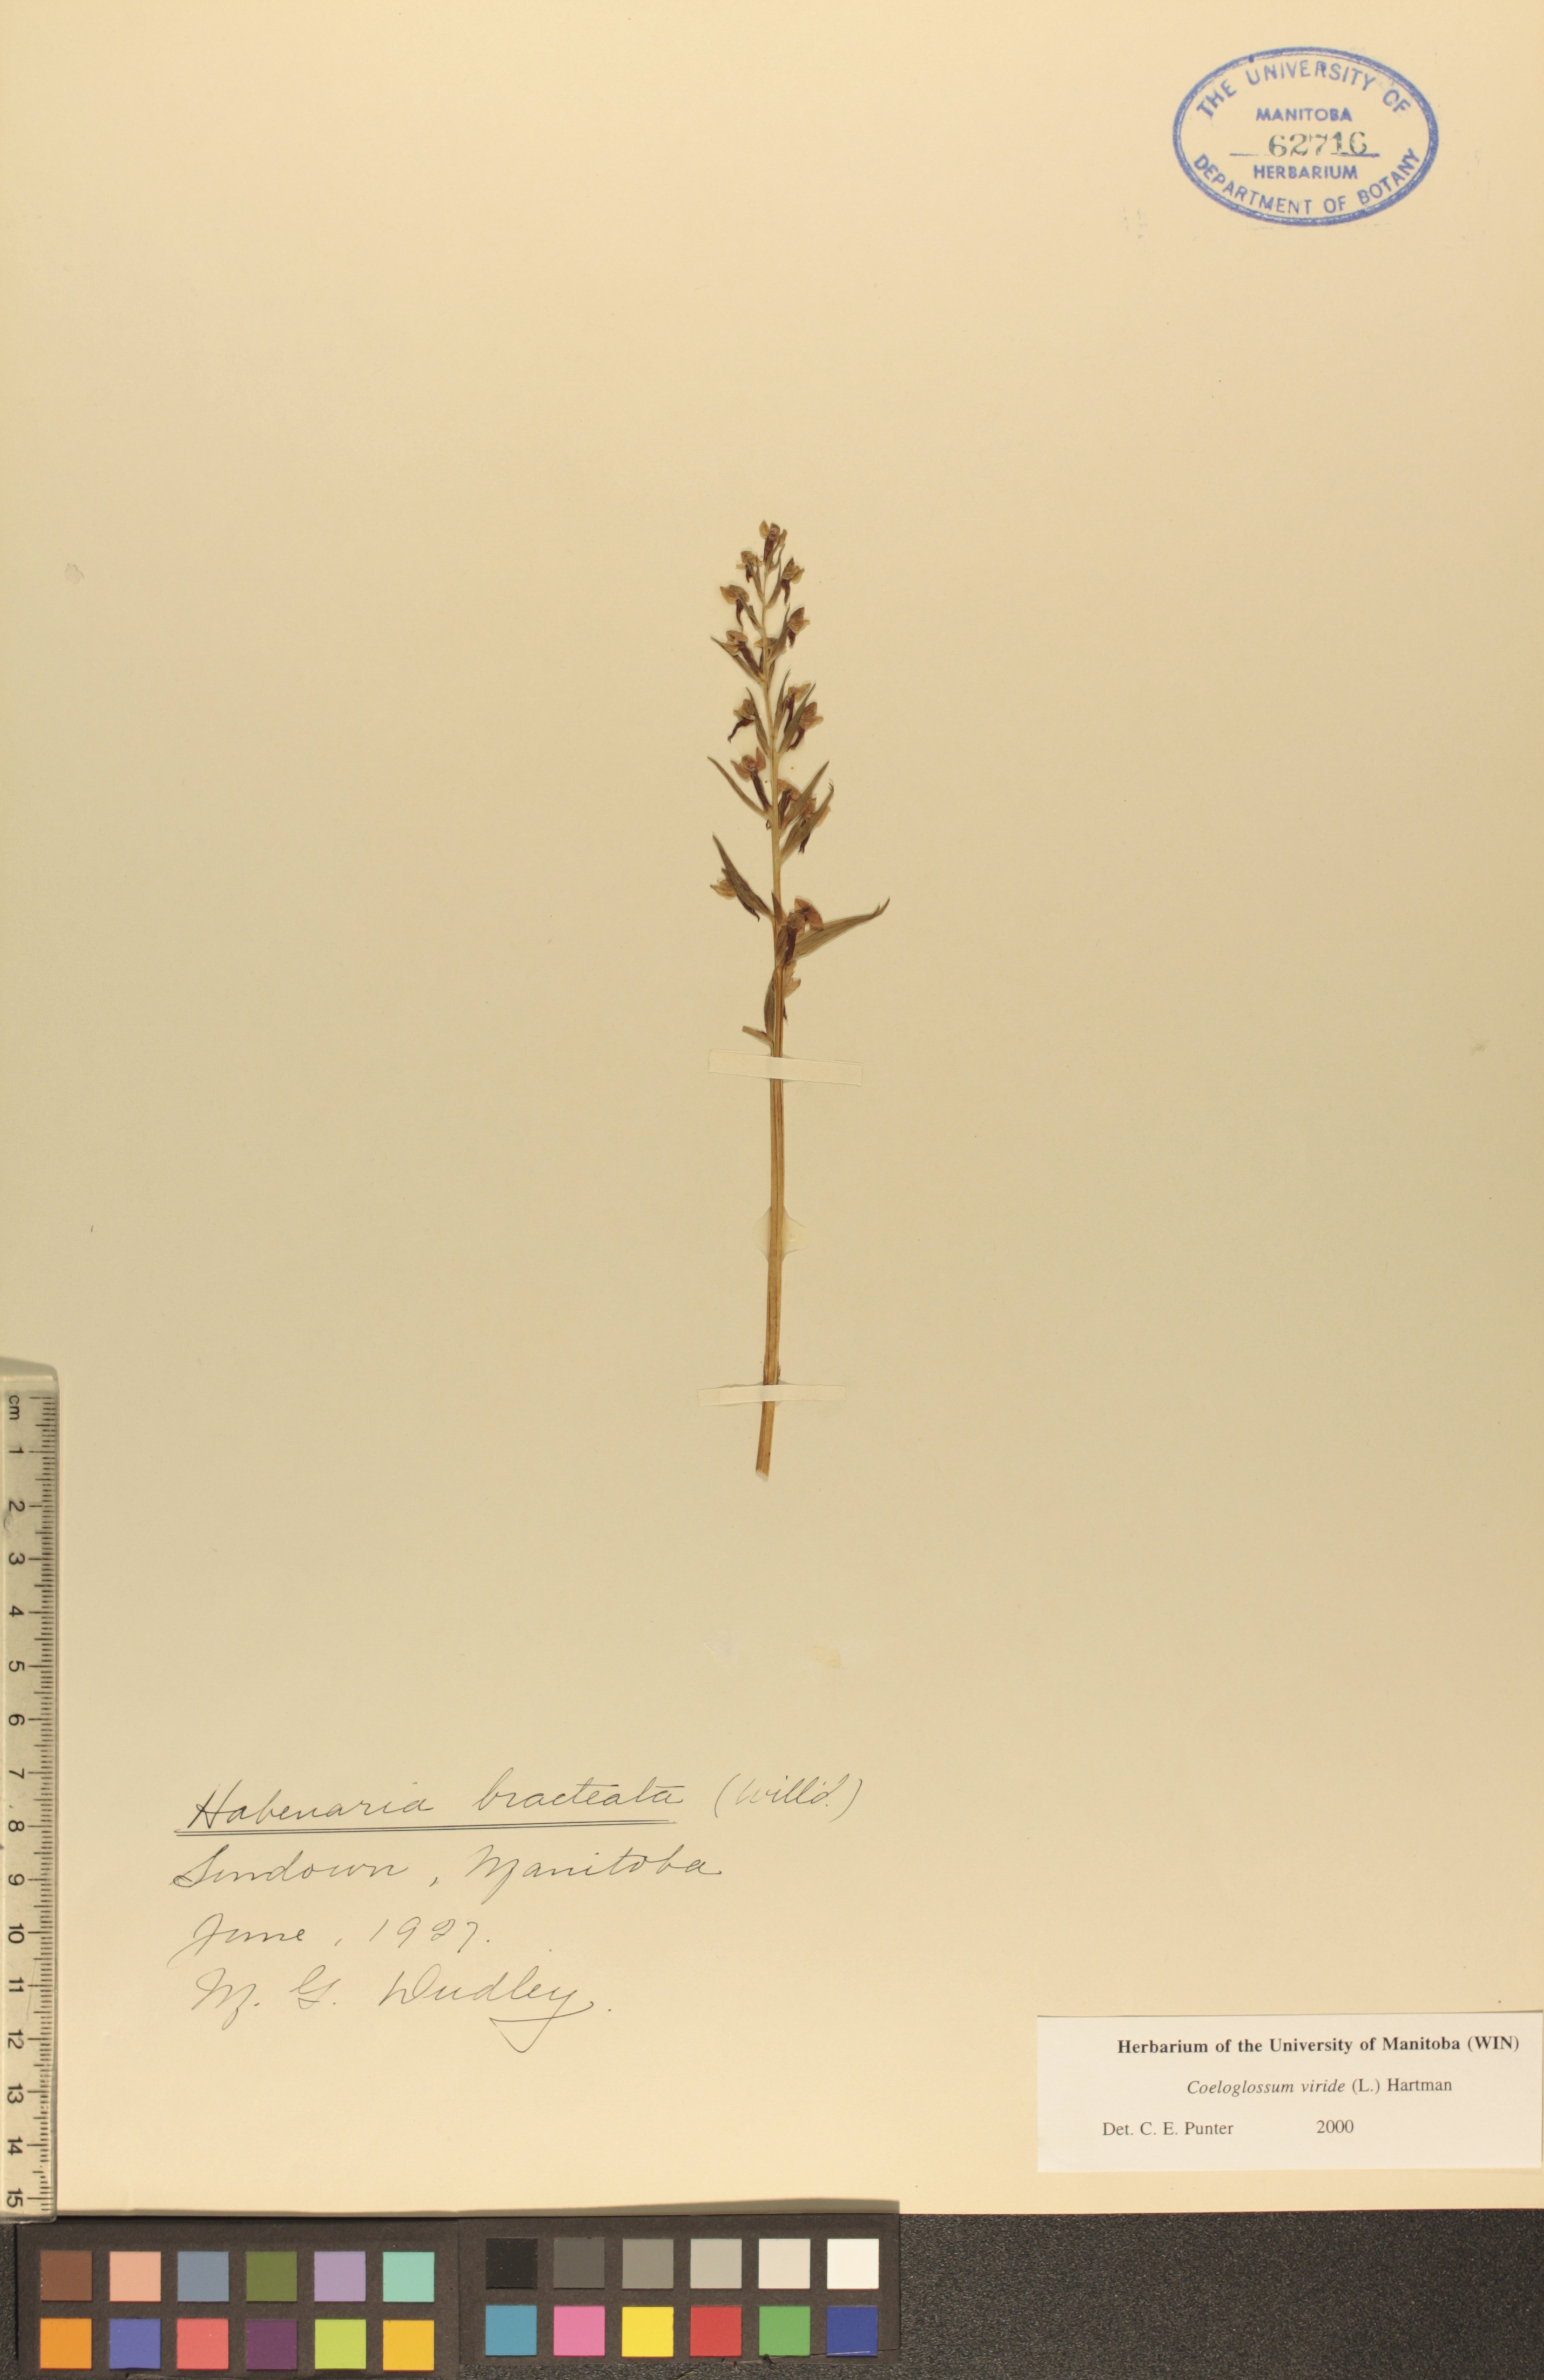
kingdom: Plantae
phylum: Tracheophyta
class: Liliopsida
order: Asparagales
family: Orchidaceae
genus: Dactylorhiza
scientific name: Dactylorhiza viridis
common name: Longbract frog orchid
